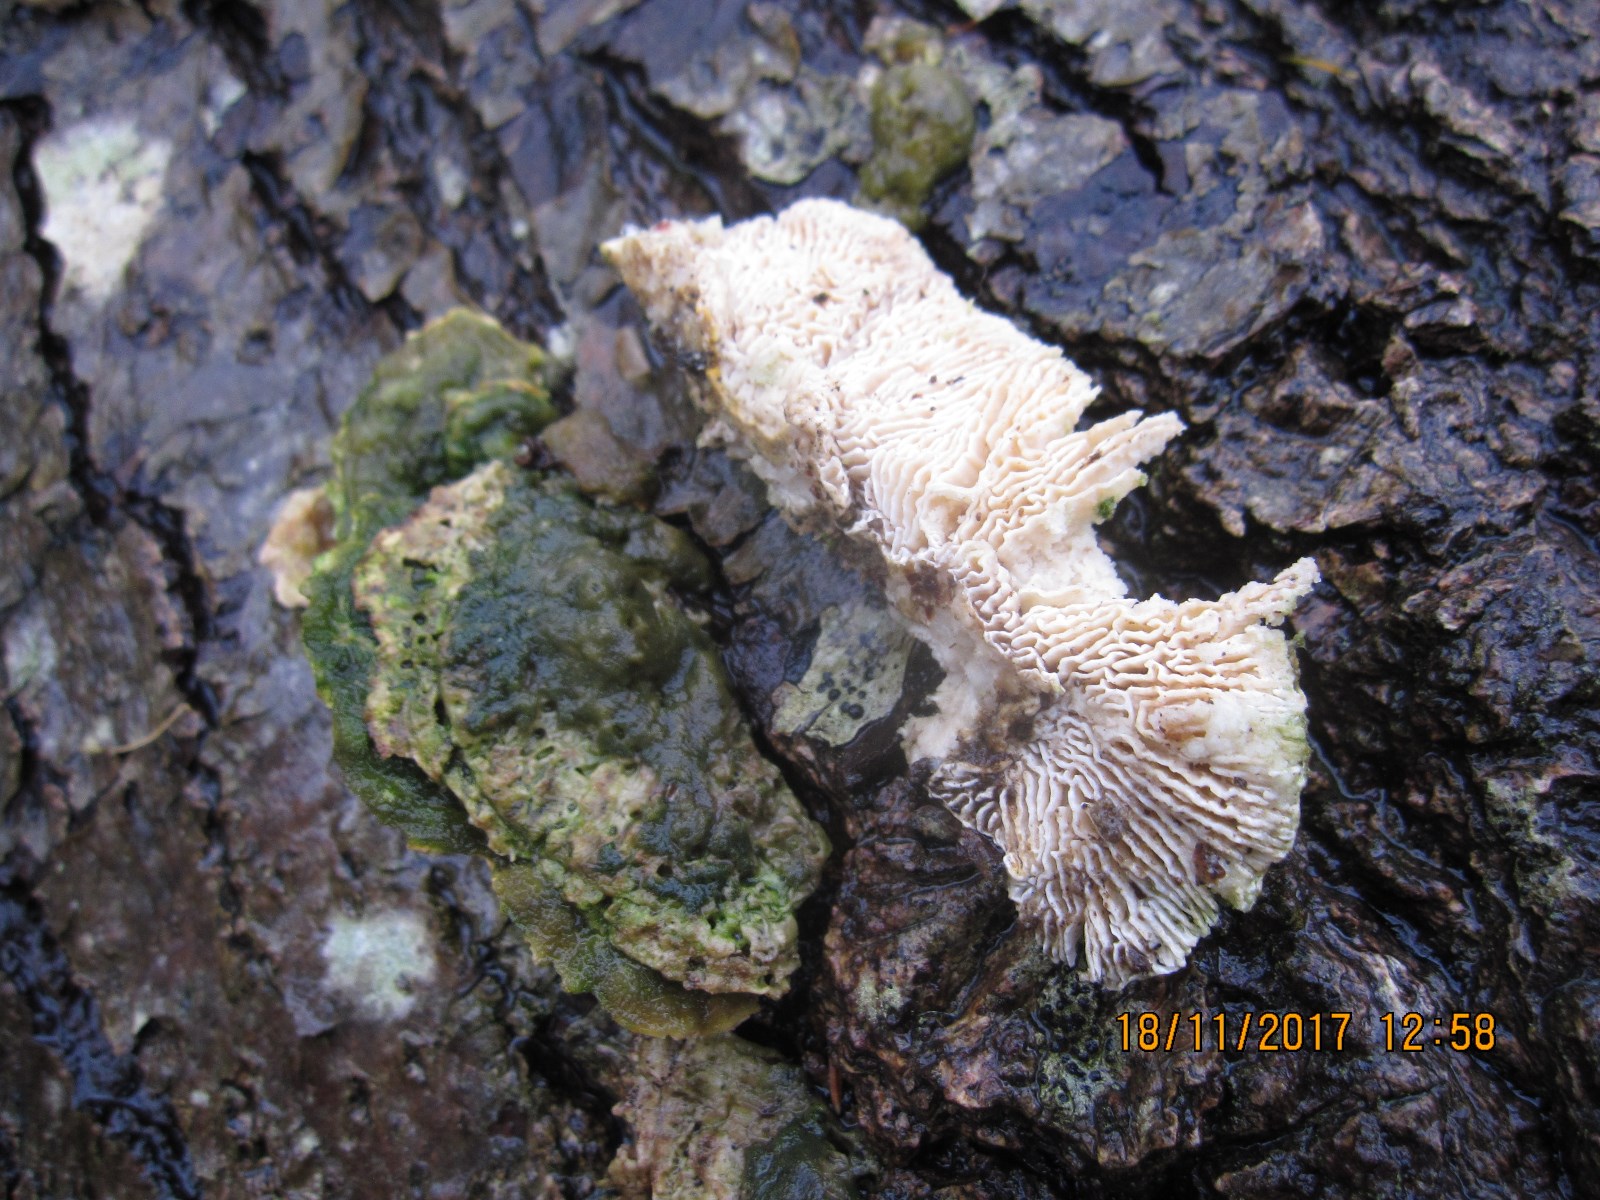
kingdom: Fungi
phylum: Basidiomycota
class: Agaricomycetes
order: Polyporales
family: Polyporaceae
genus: Lenzites
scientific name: Lenzites betulinus
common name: birke-læderporesvamp
